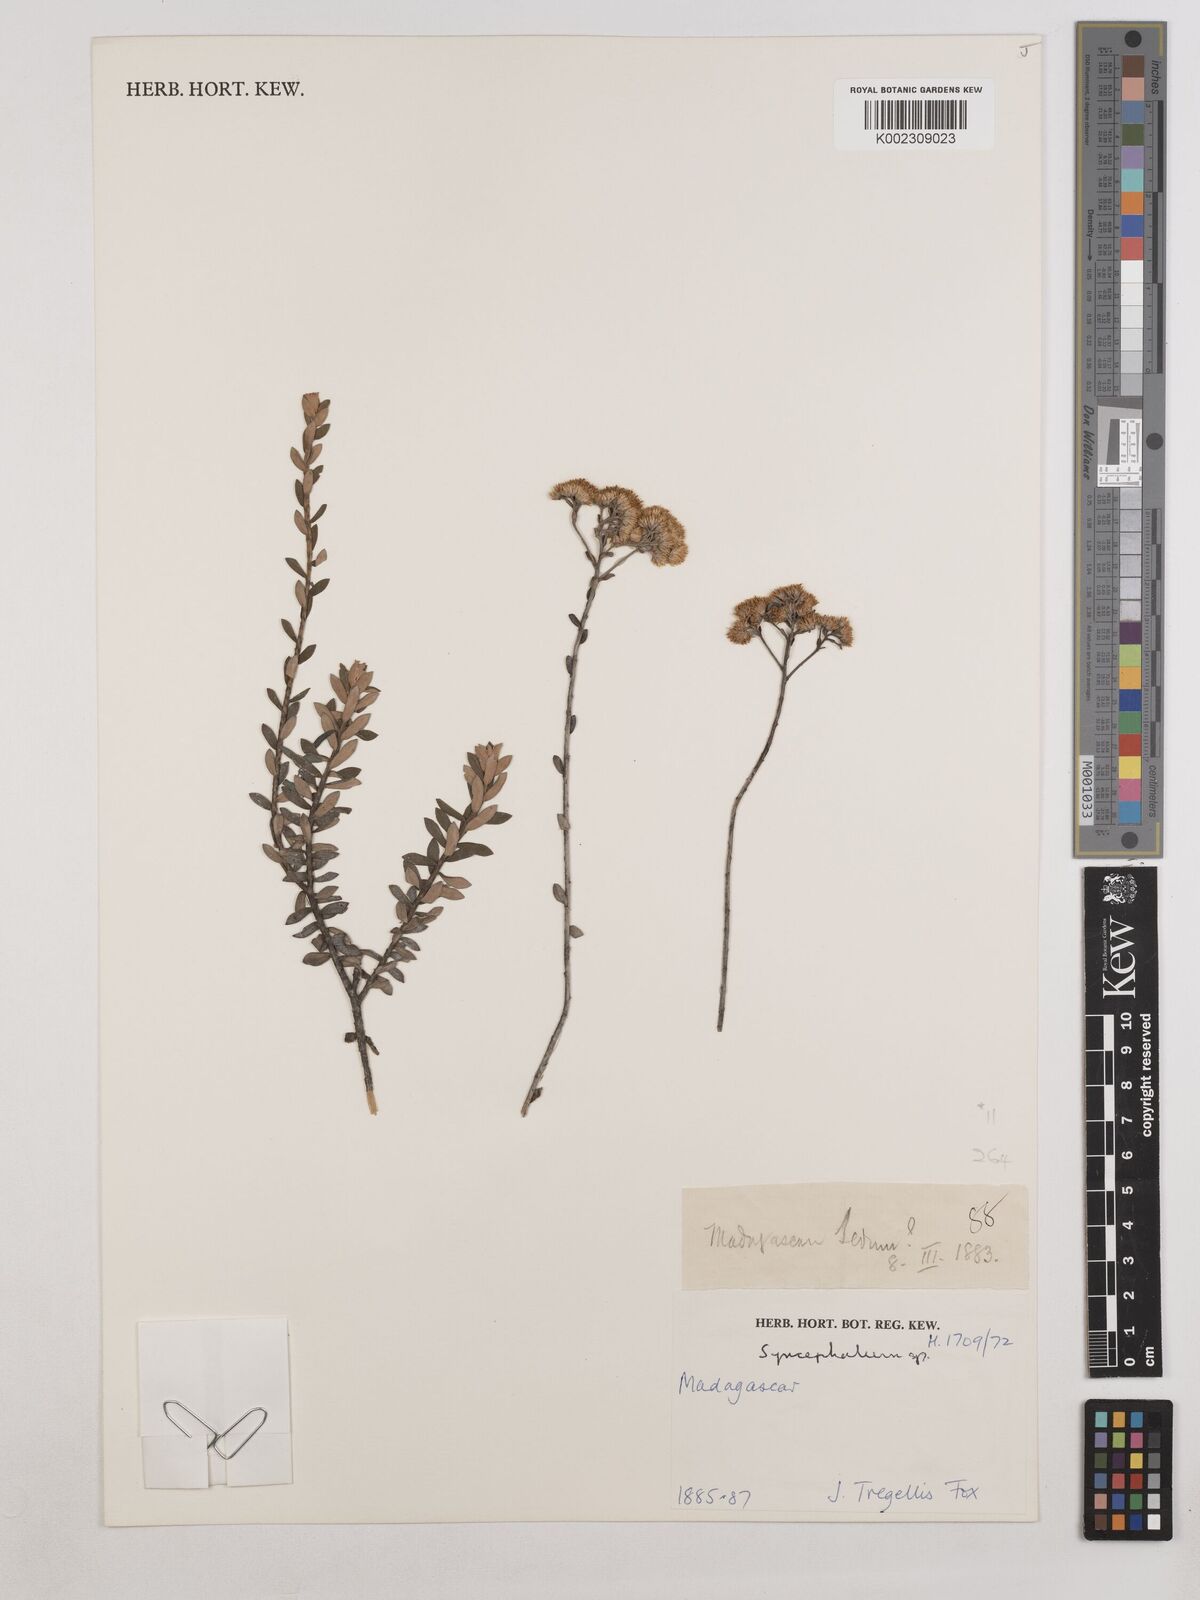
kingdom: Plantae
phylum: Tracheophyta
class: Magnoliopsida
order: Asterales
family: Asteraceae
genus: Syncephalum
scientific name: Syncephalum tsinjoarivense
